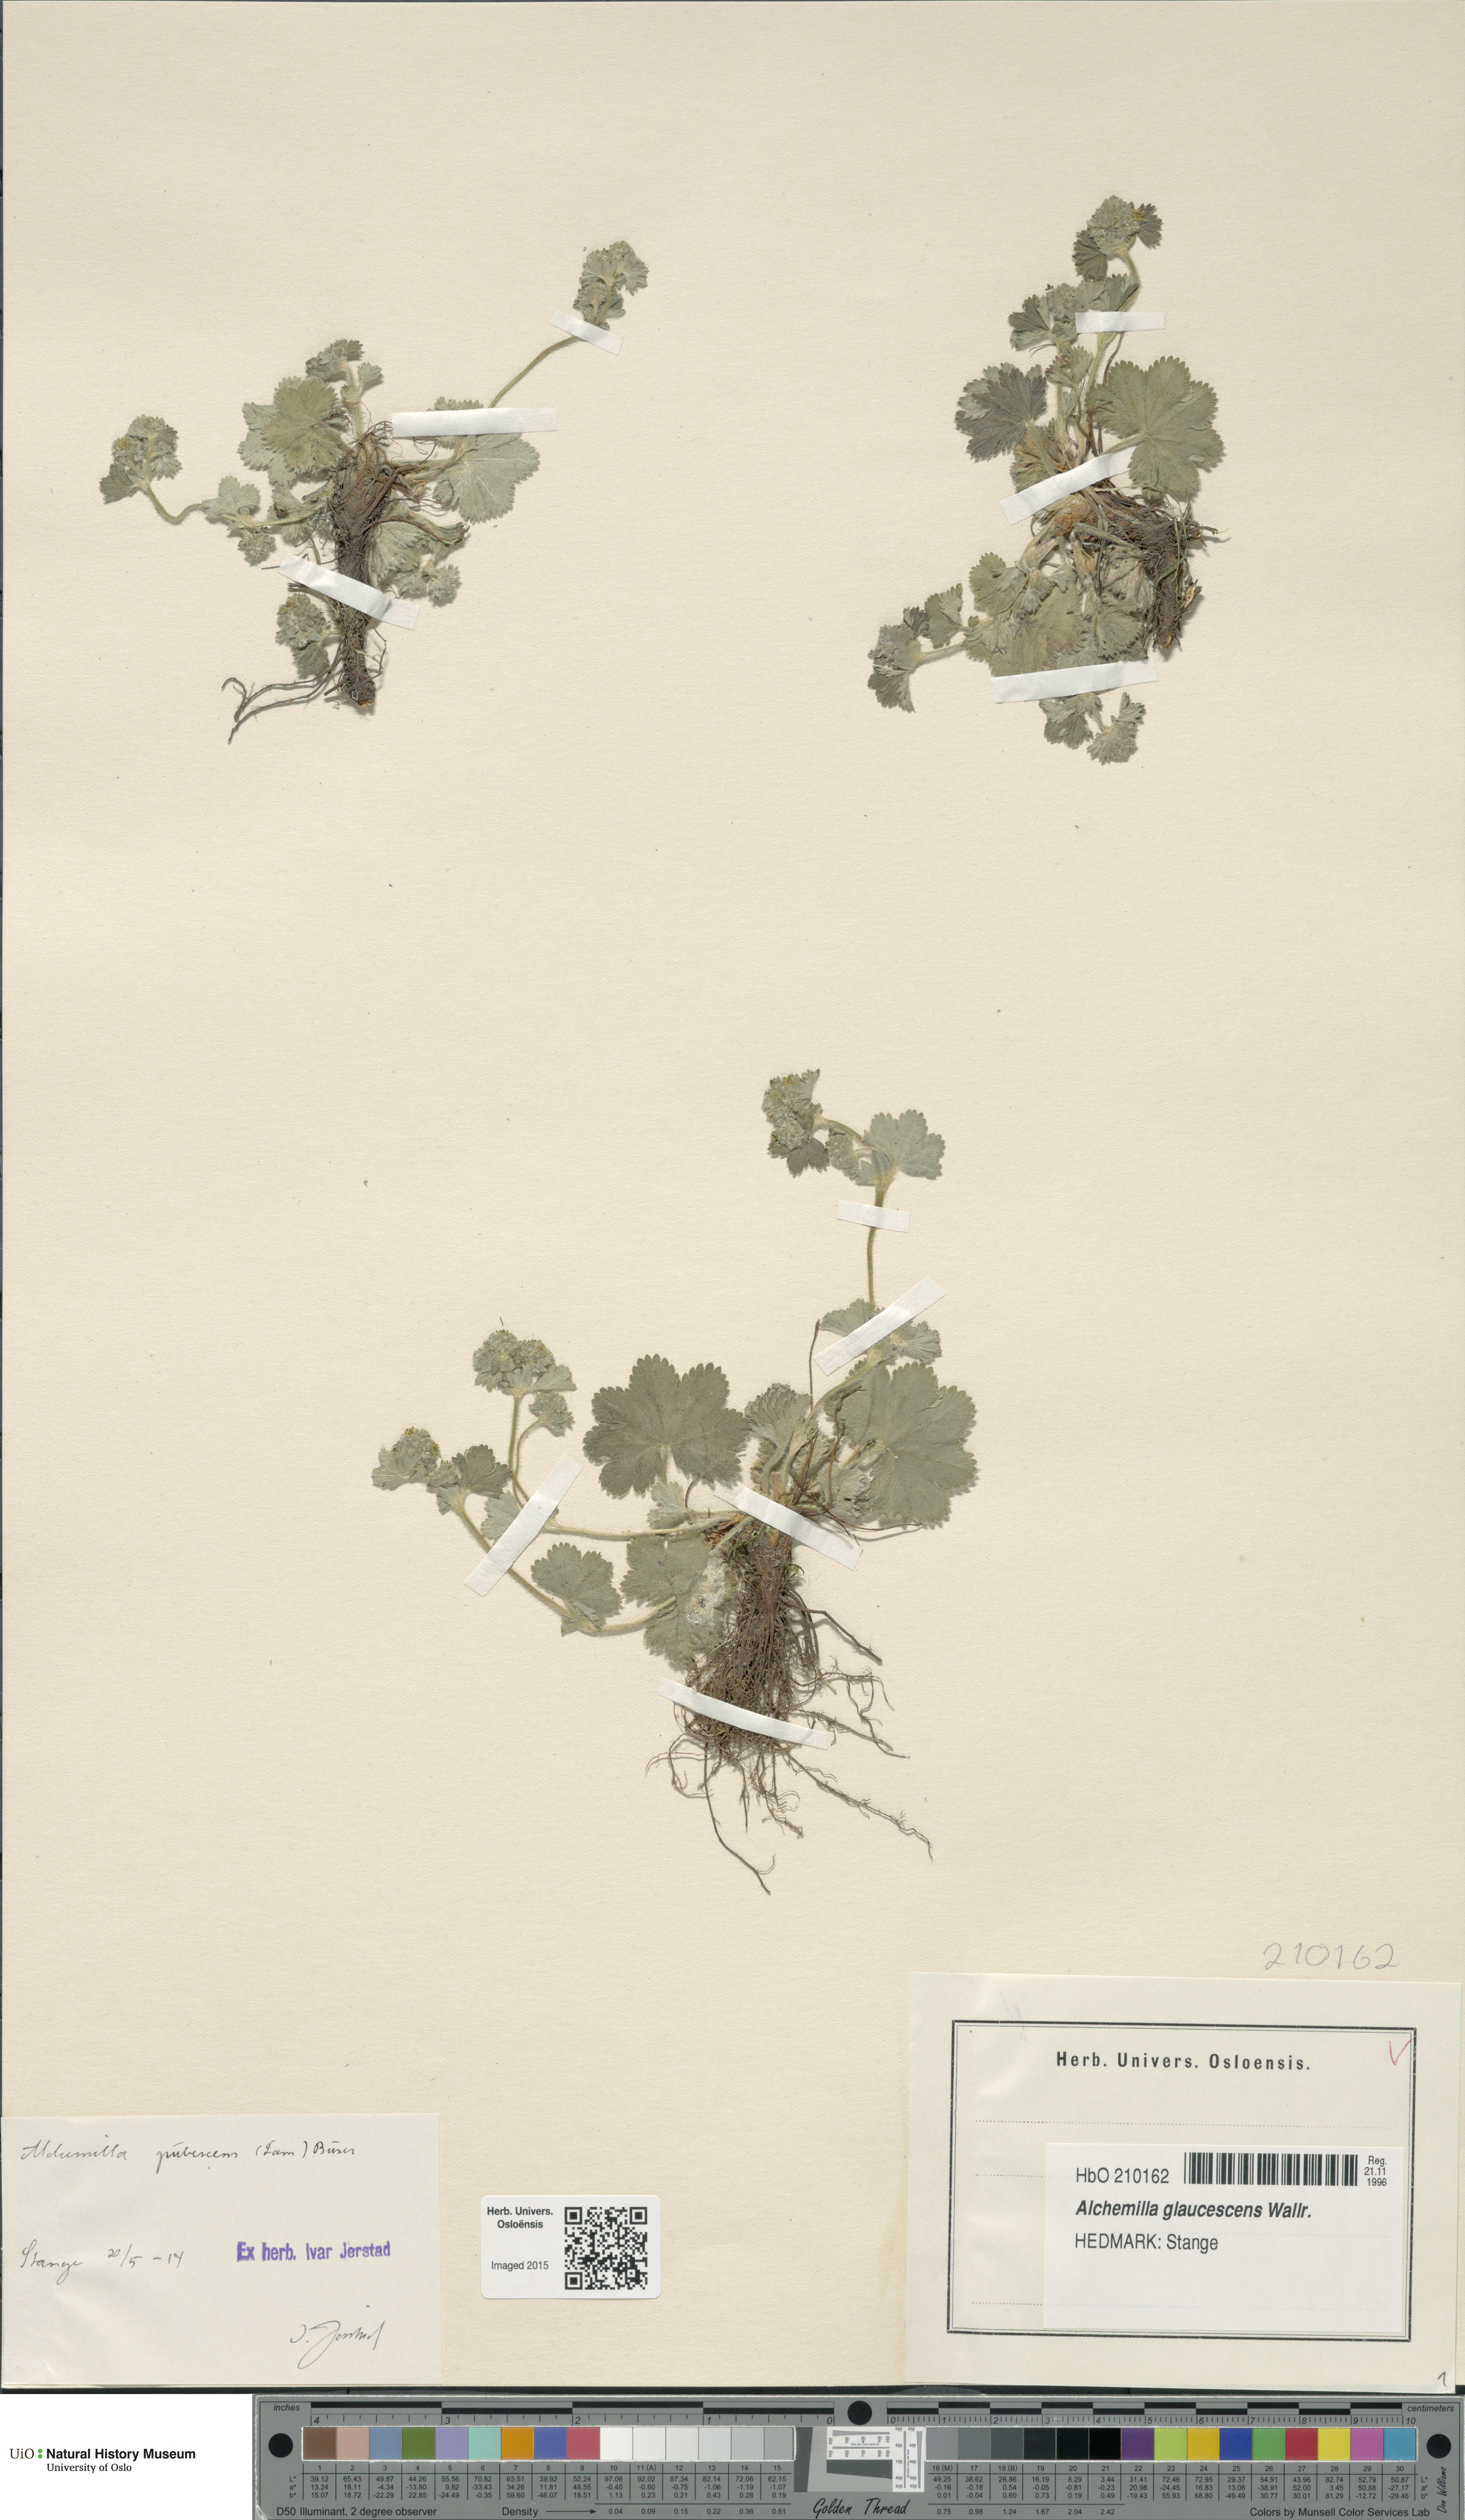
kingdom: Plantae
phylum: Tracheophyta
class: Magnoliopsida
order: Rosales
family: Rosaceae
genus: Alchemilla
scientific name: Alchemilla glaucescens
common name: Silky lady's mantle
